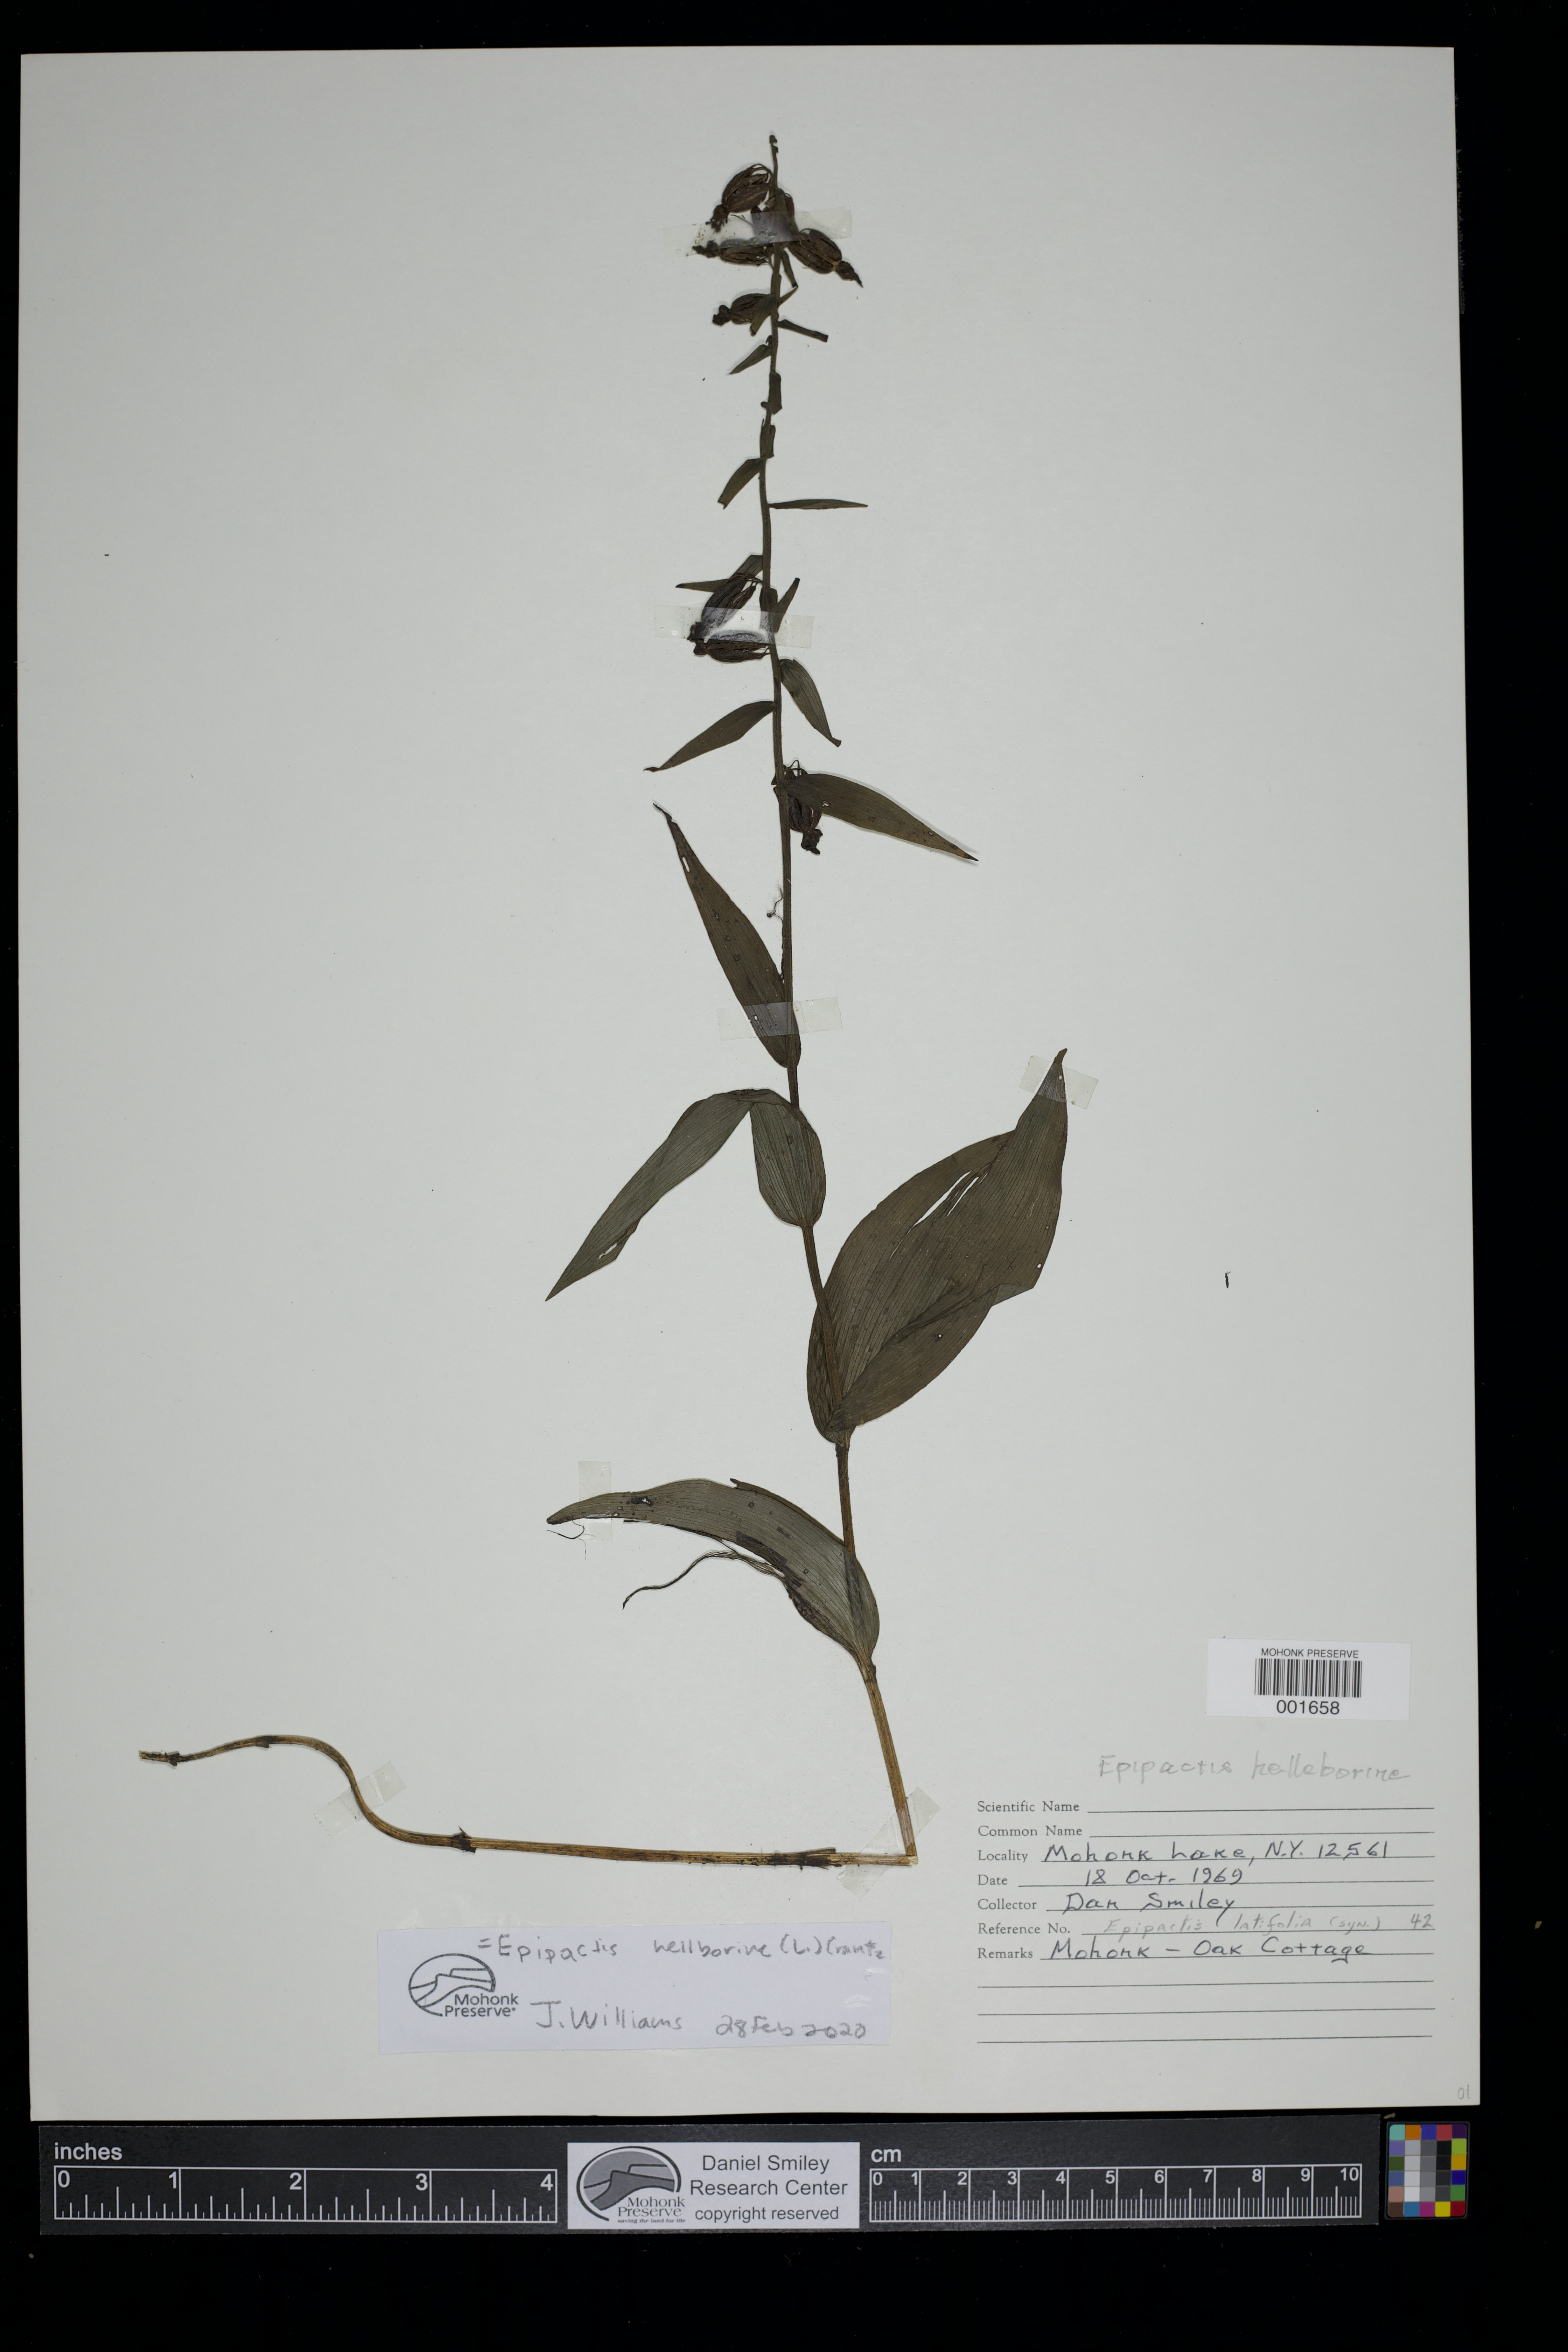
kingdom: Plantae
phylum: Tracheophyta
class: Liliopsida
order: Asparagales
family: Orchidaceae
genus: Epipactis
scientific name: Epipactis helleborine
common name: Broad-leaved helleborine
